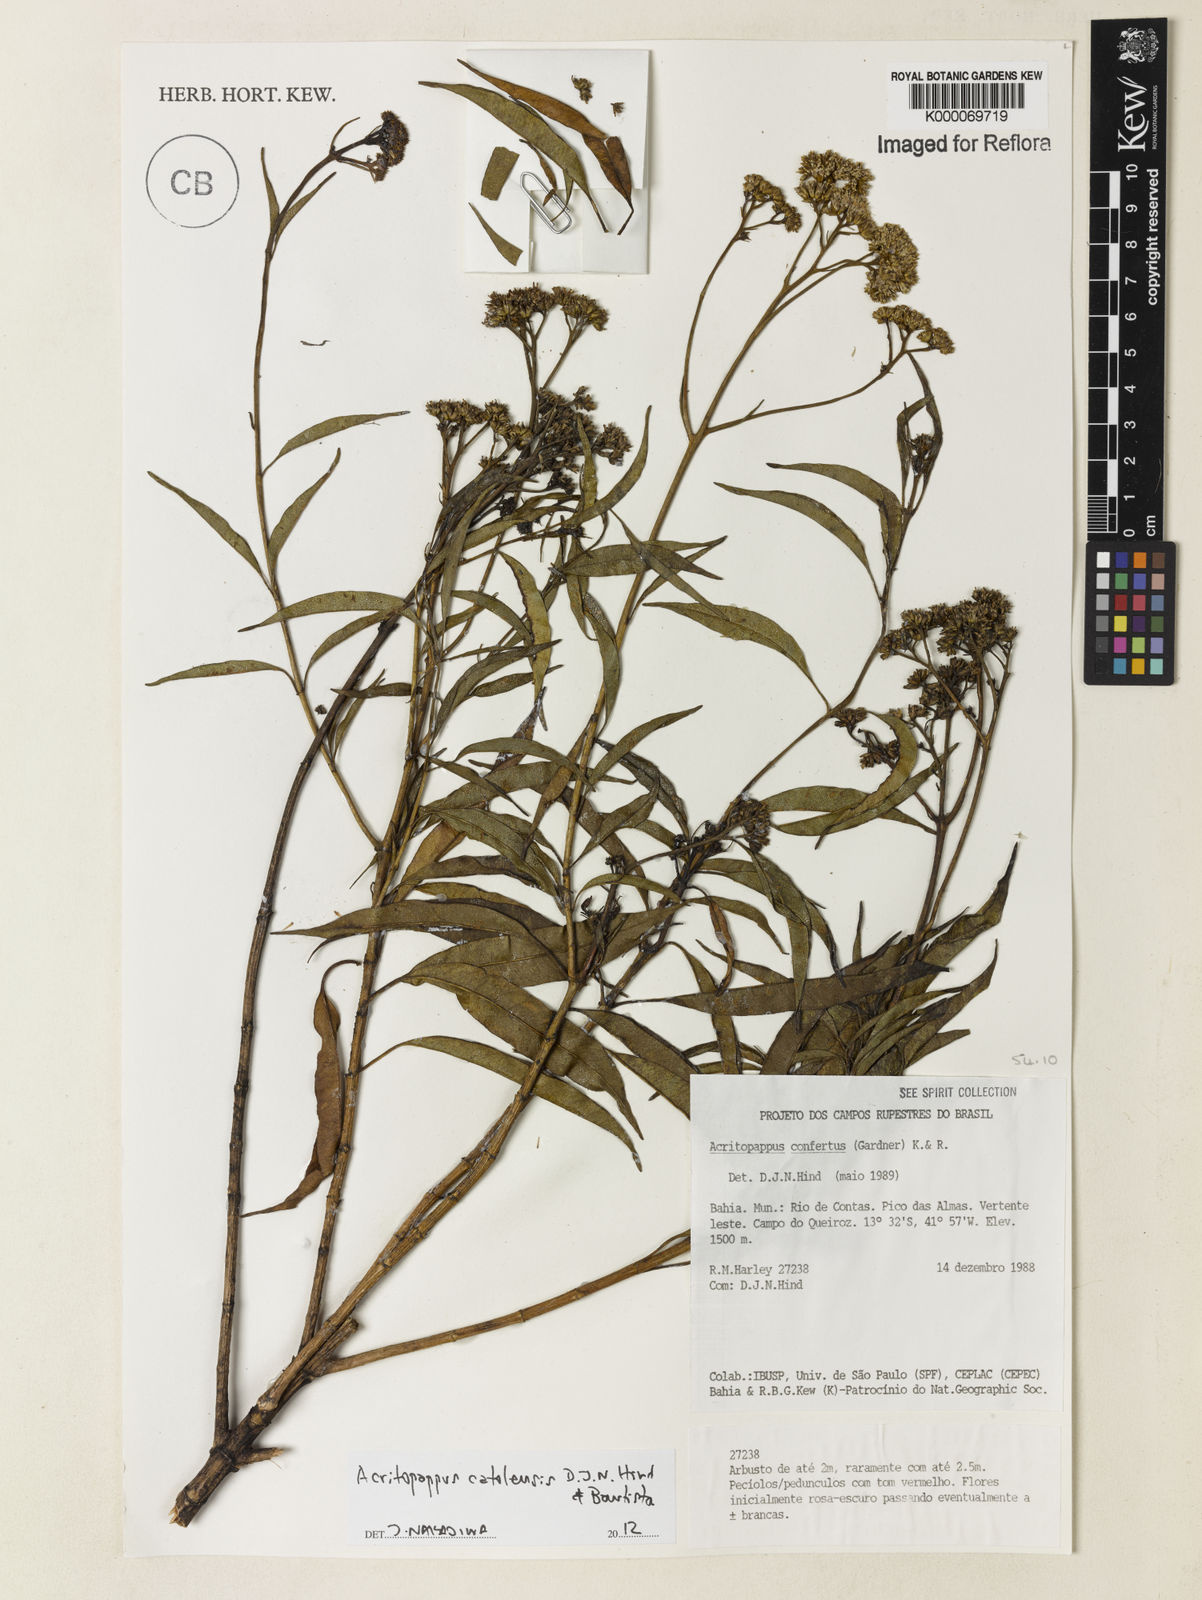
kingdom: Plantae
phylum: Tracheophyta
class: Magnoliopsida
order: Asterales
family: Asteraceae
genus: Acritopappus
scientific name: Acritopappus confertus
